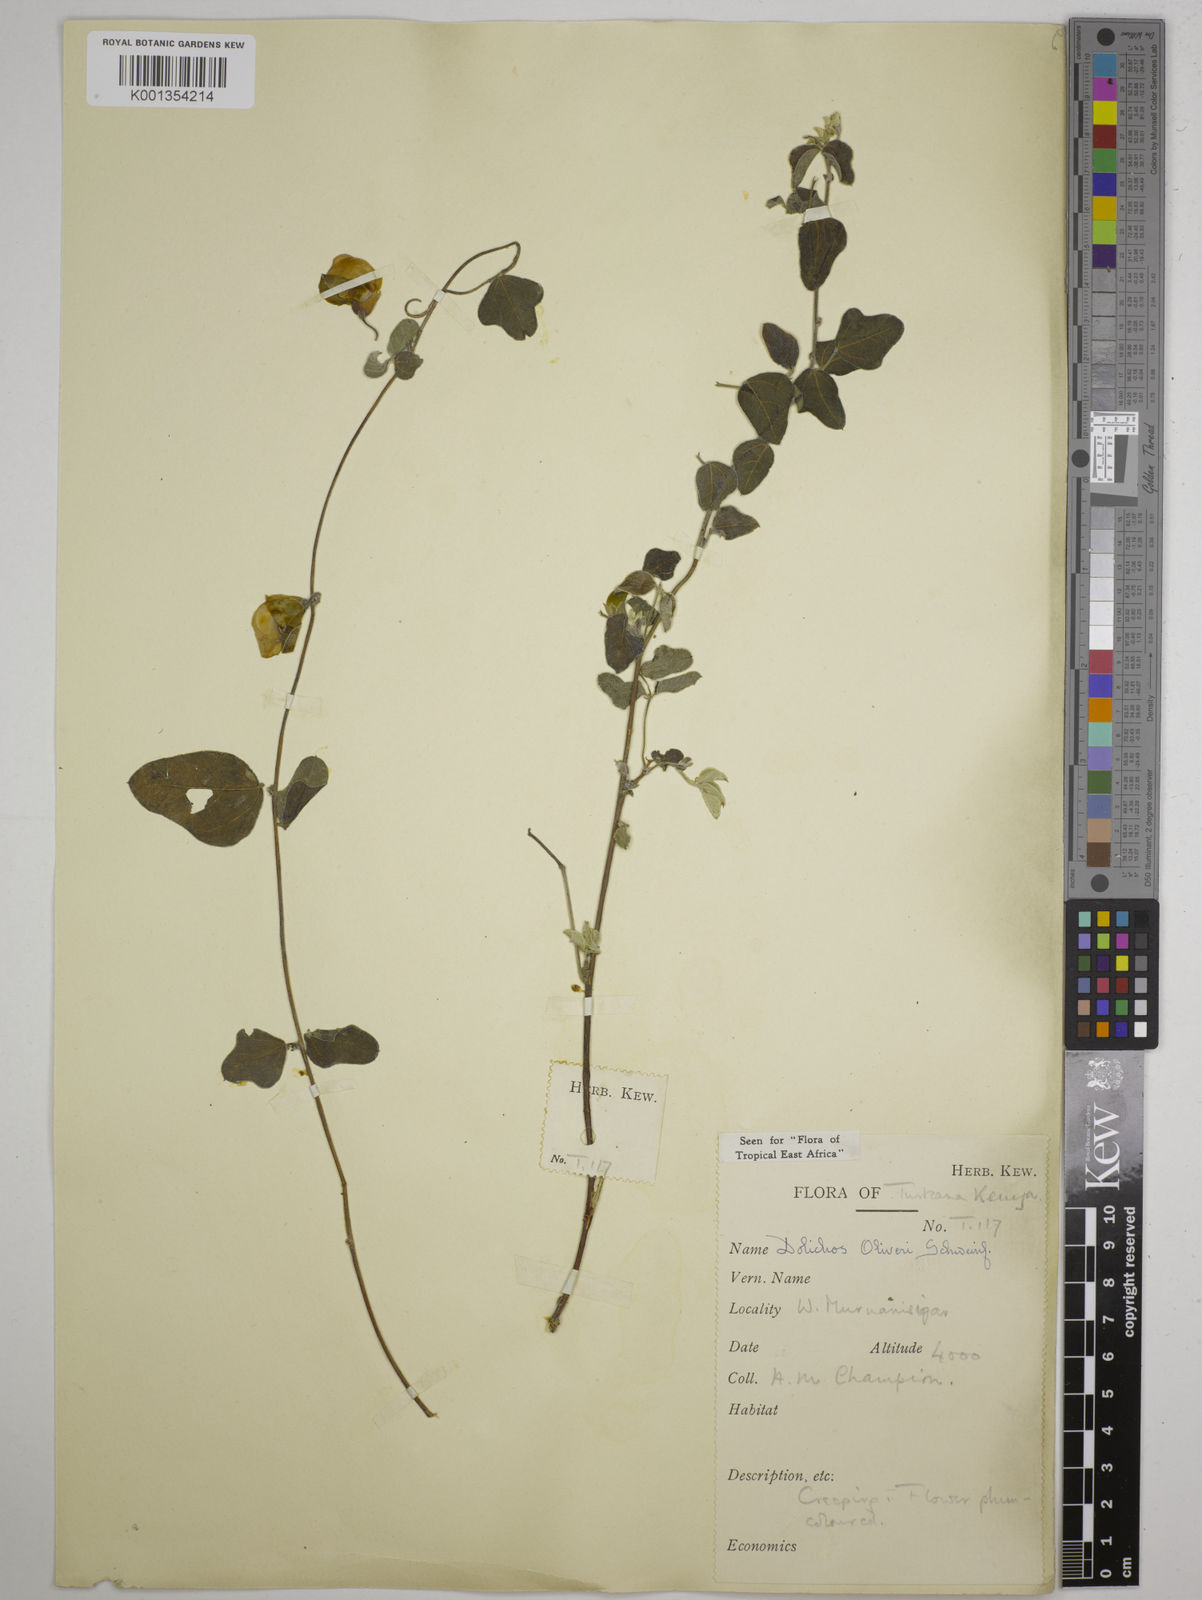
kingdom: Plantae
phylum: Tracheophyta
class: Magnoliopsida
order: Fabales
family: Fabaceae
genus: Dolichos
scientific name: Dolichos
